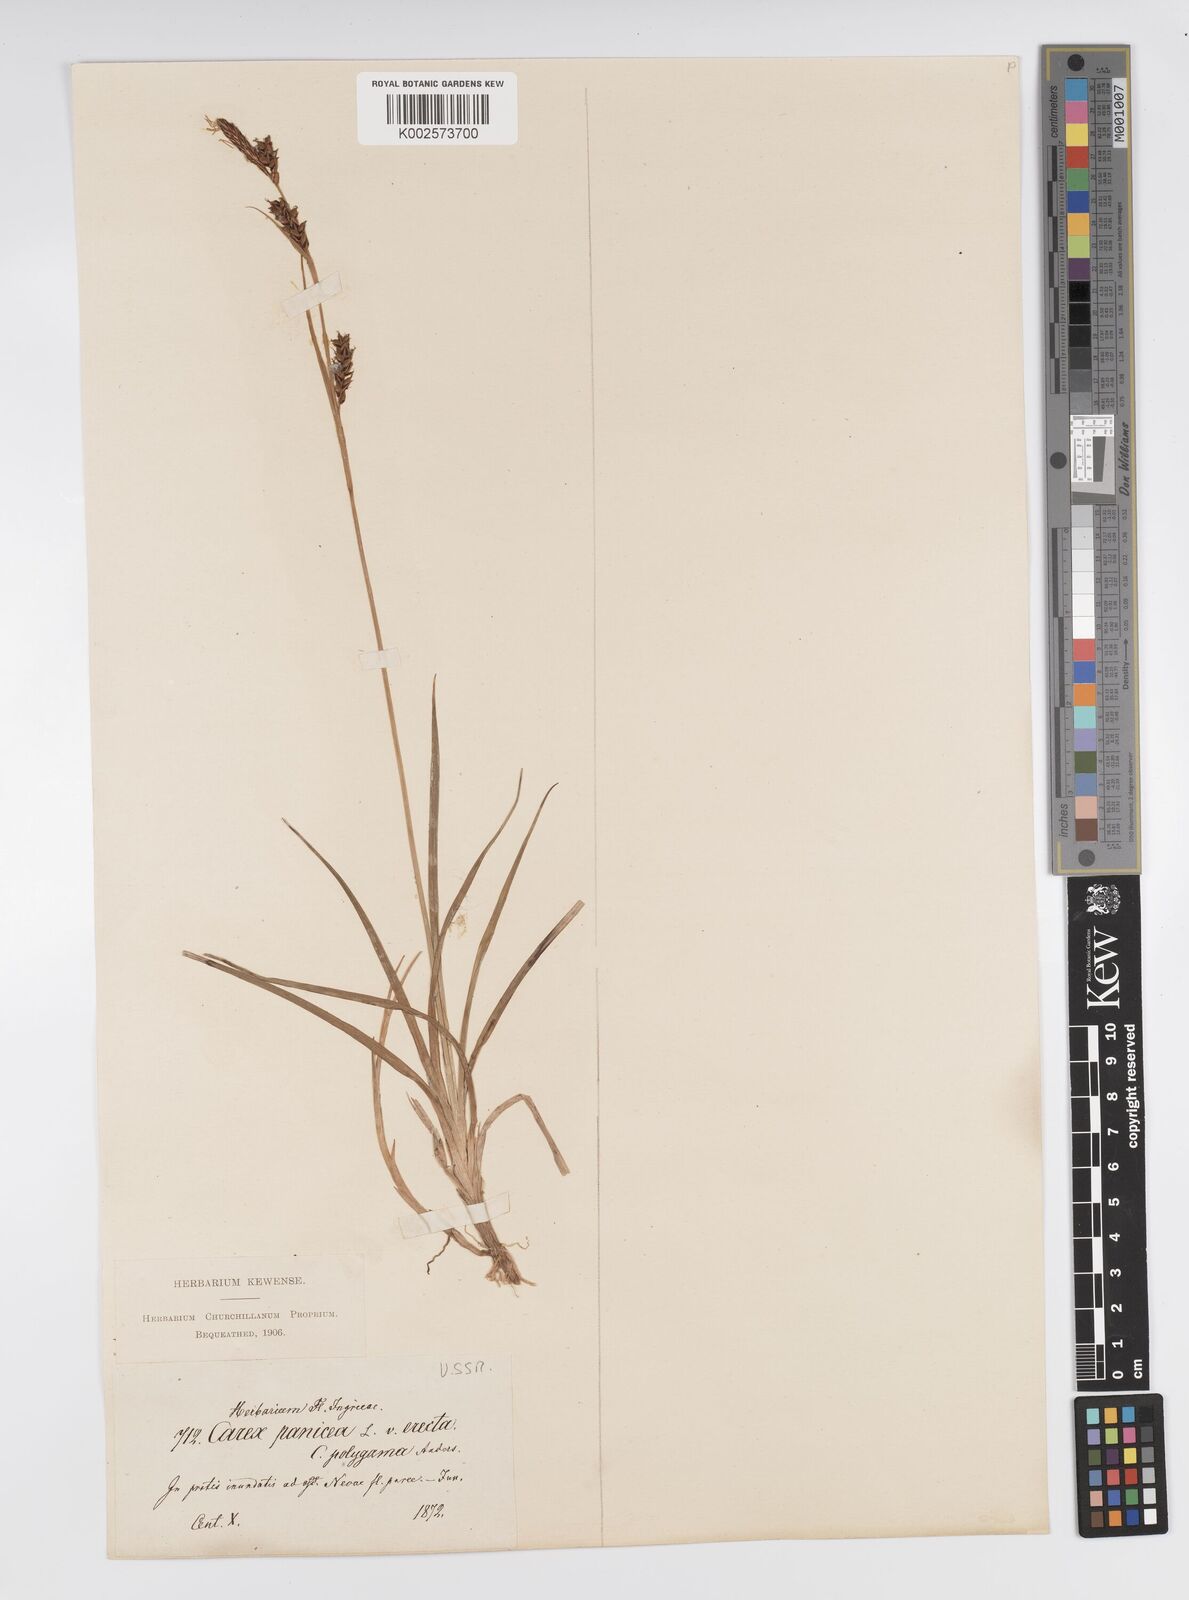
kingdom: Plantae
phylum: Tracheophyta
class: Liliopsida
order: Poales
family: Cyperaceae
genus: Carex
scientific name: Carex panicea
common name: Carnation sedge
